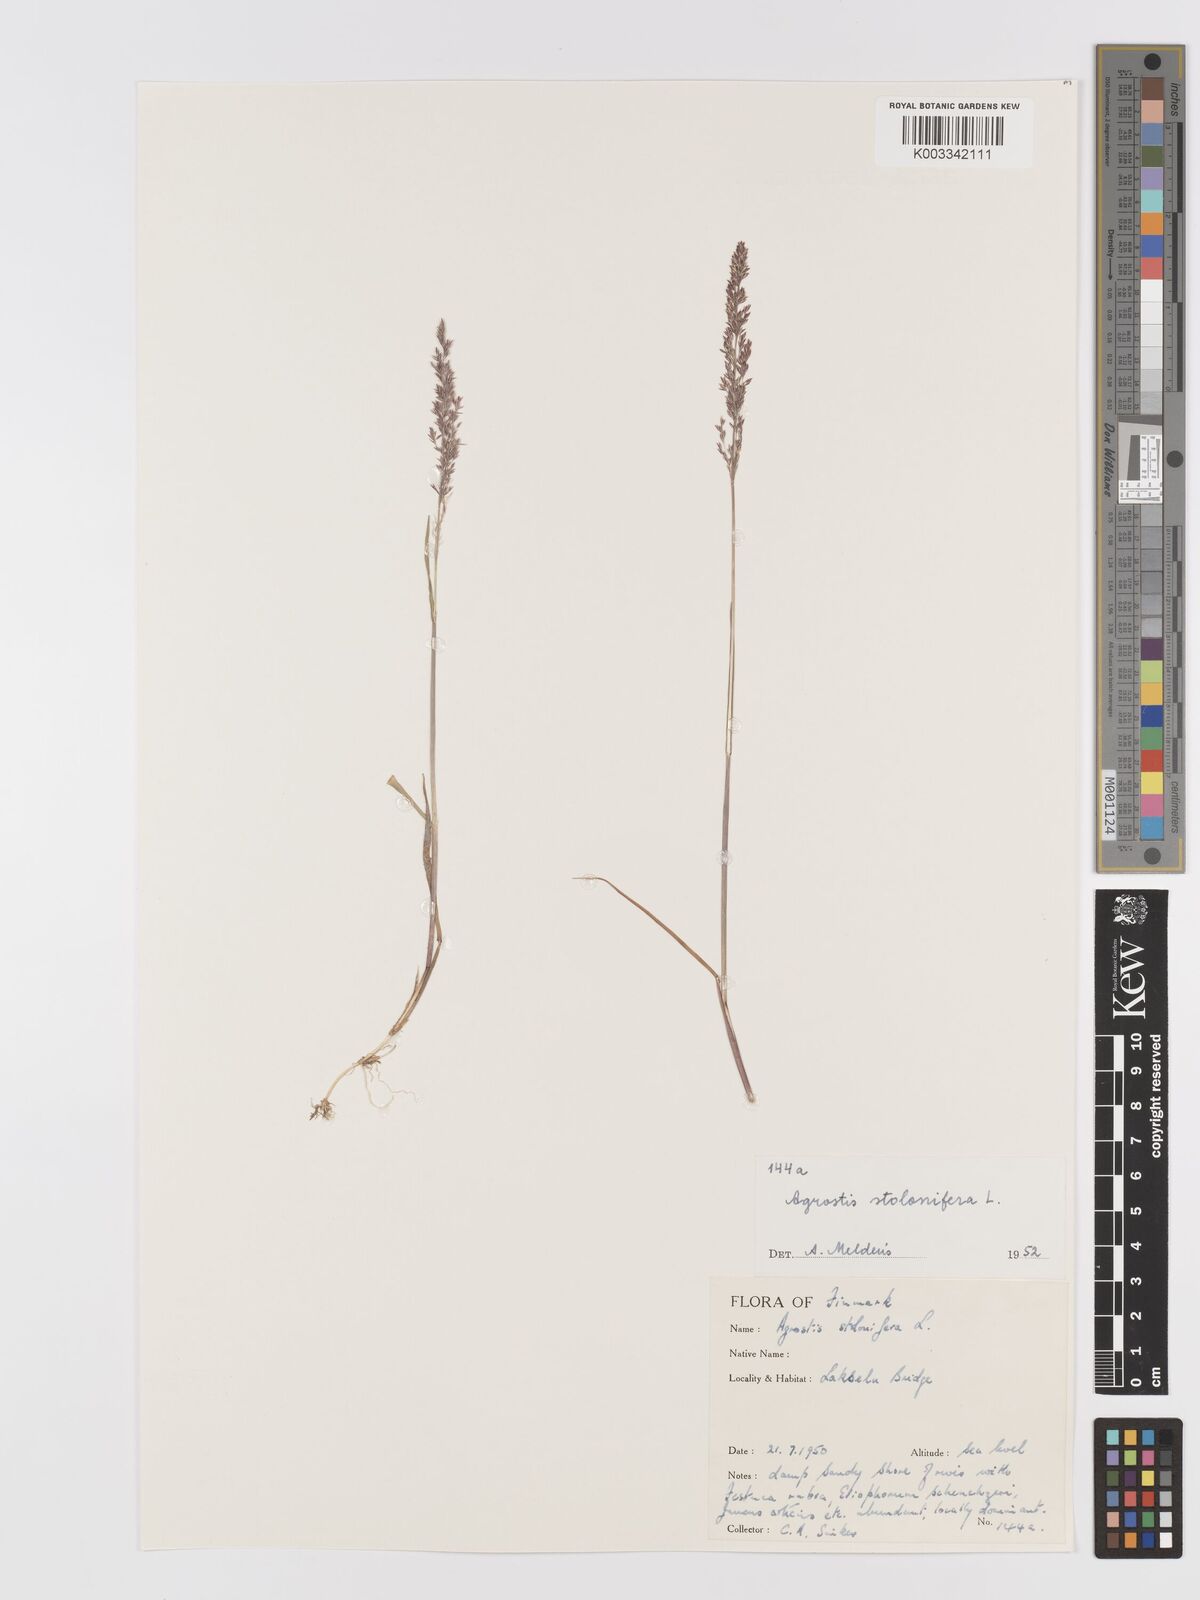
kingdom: Plantae
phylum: Tracheophyta
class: Liliopsida
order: Poales
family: Poaceae
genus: Agrostis
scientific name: Agrostis stolonifera
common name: Creeping bentgrass
